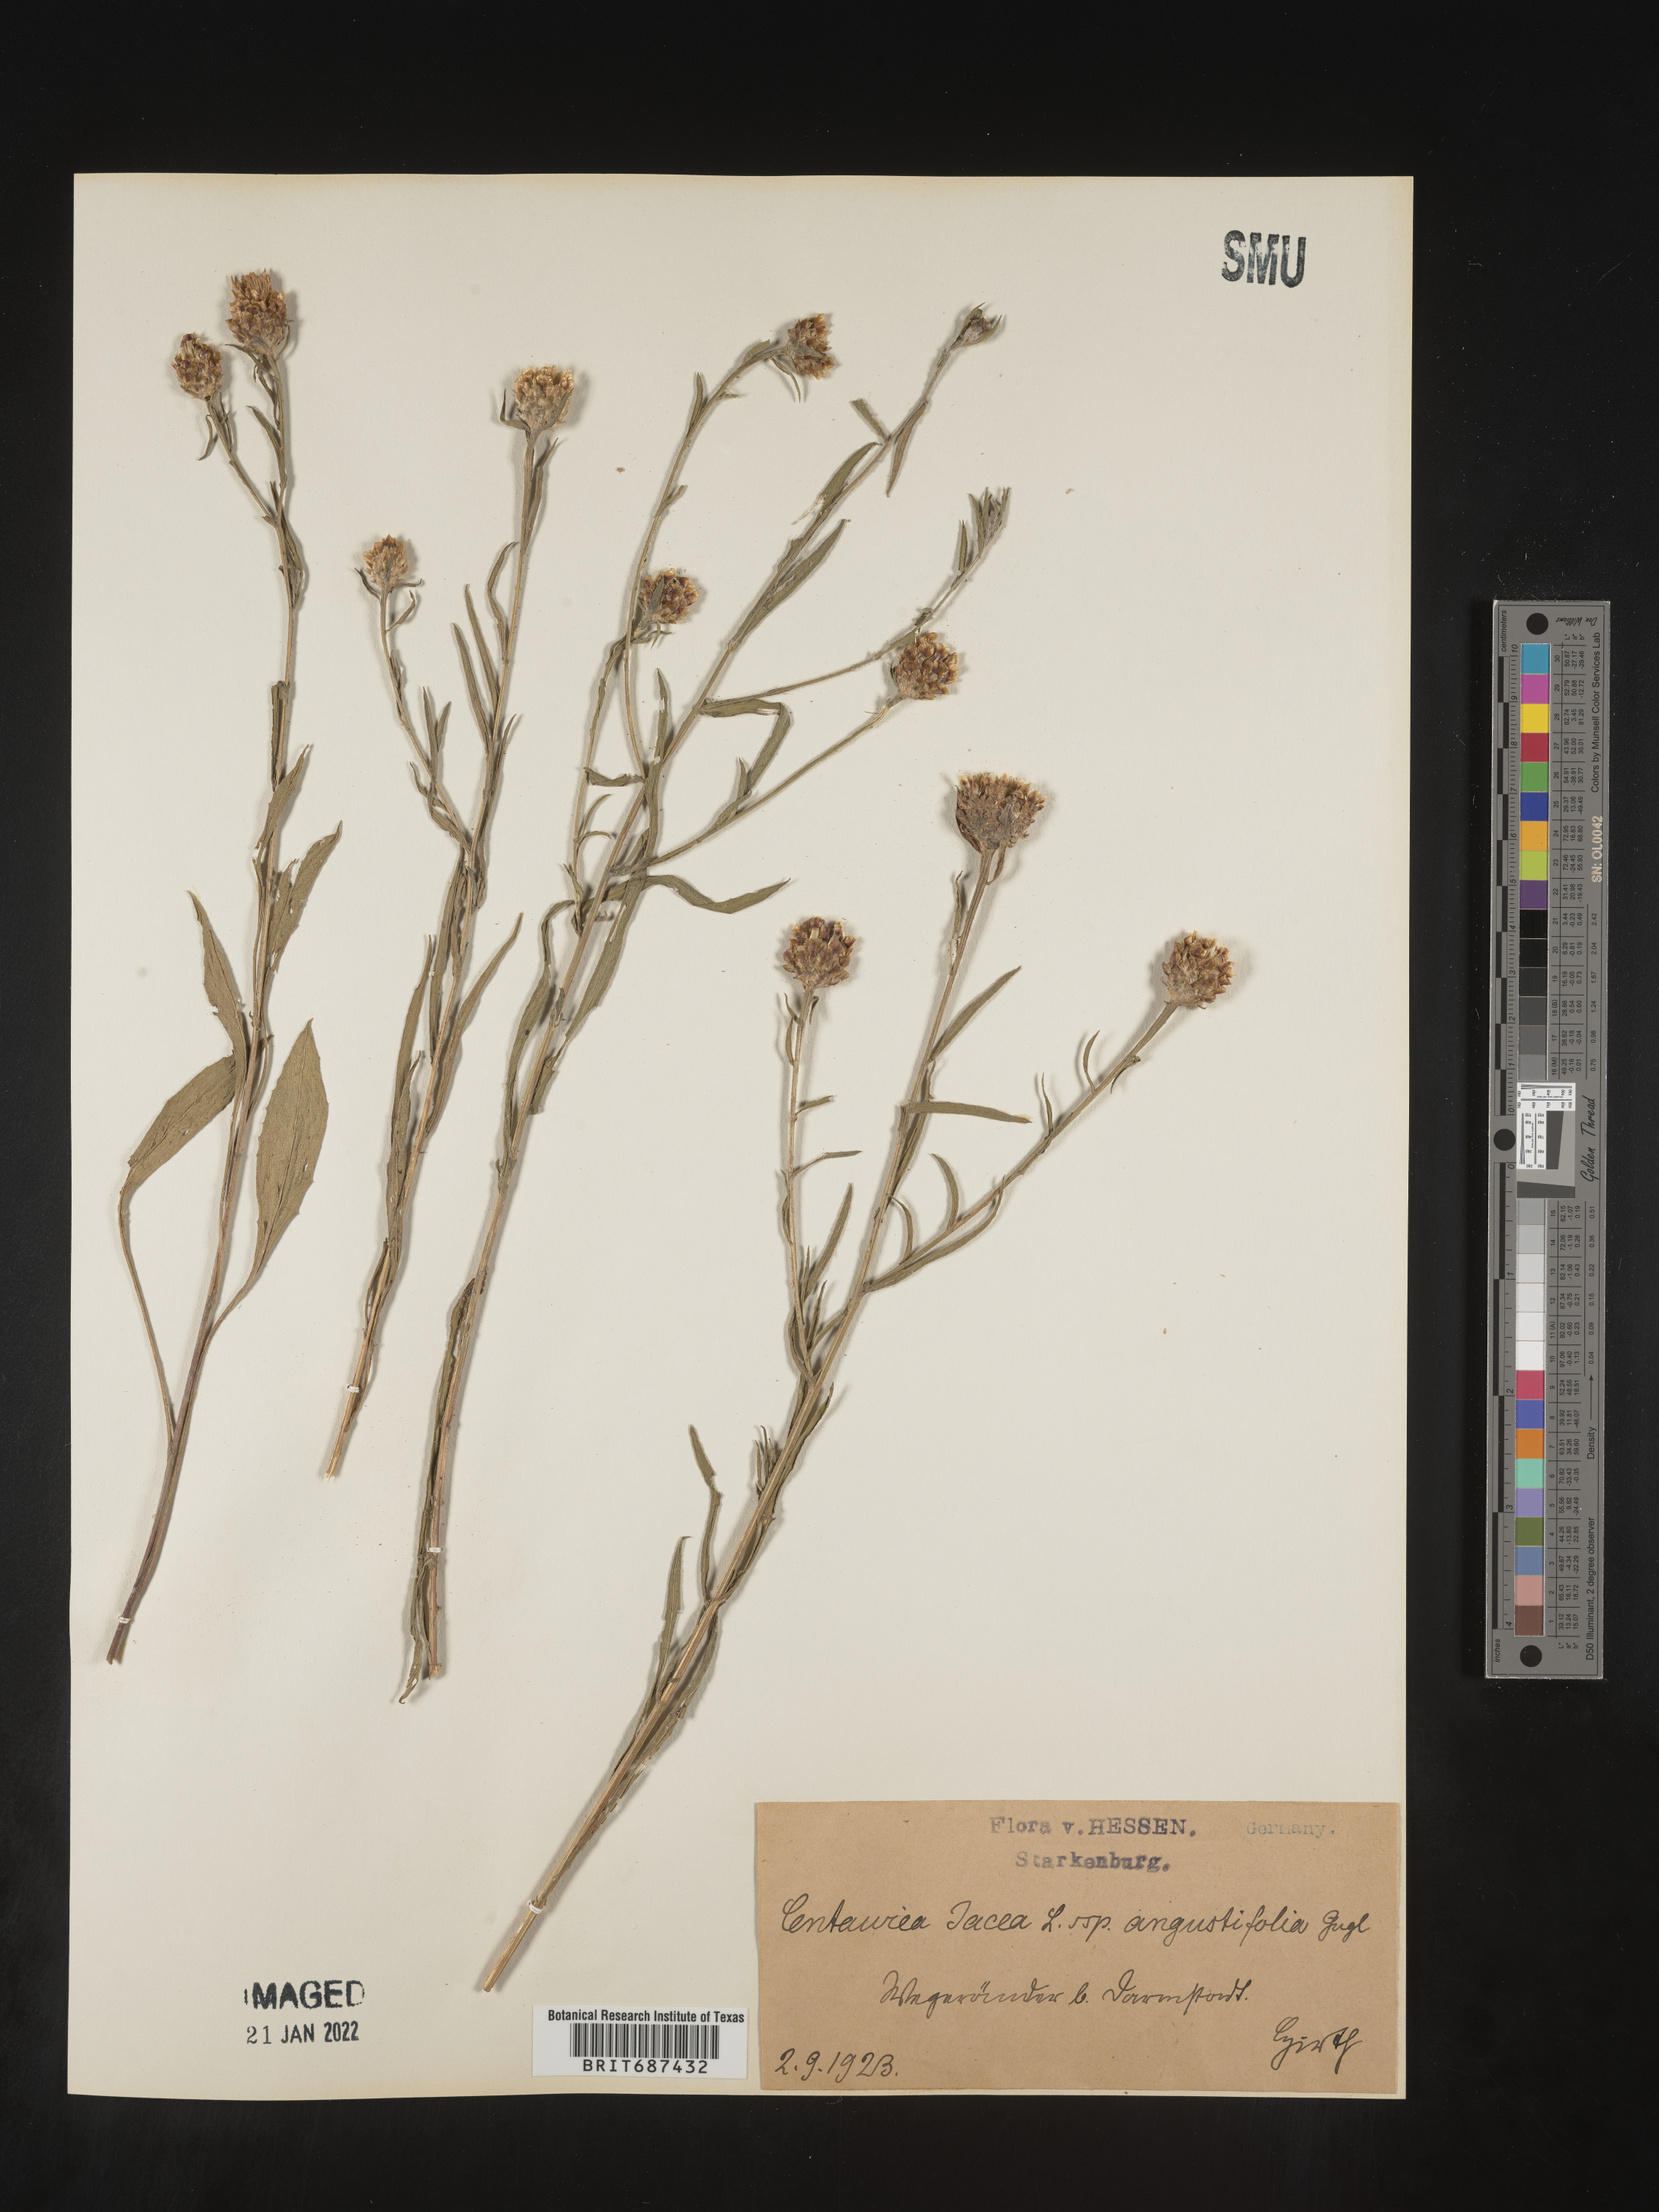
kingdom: Plantae
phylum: Tracheophyta
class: Magnoliopsida
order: Asterales
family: Asteraceae
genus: Centaurea
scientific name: Centaurea jacea
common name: Brown knapweed
